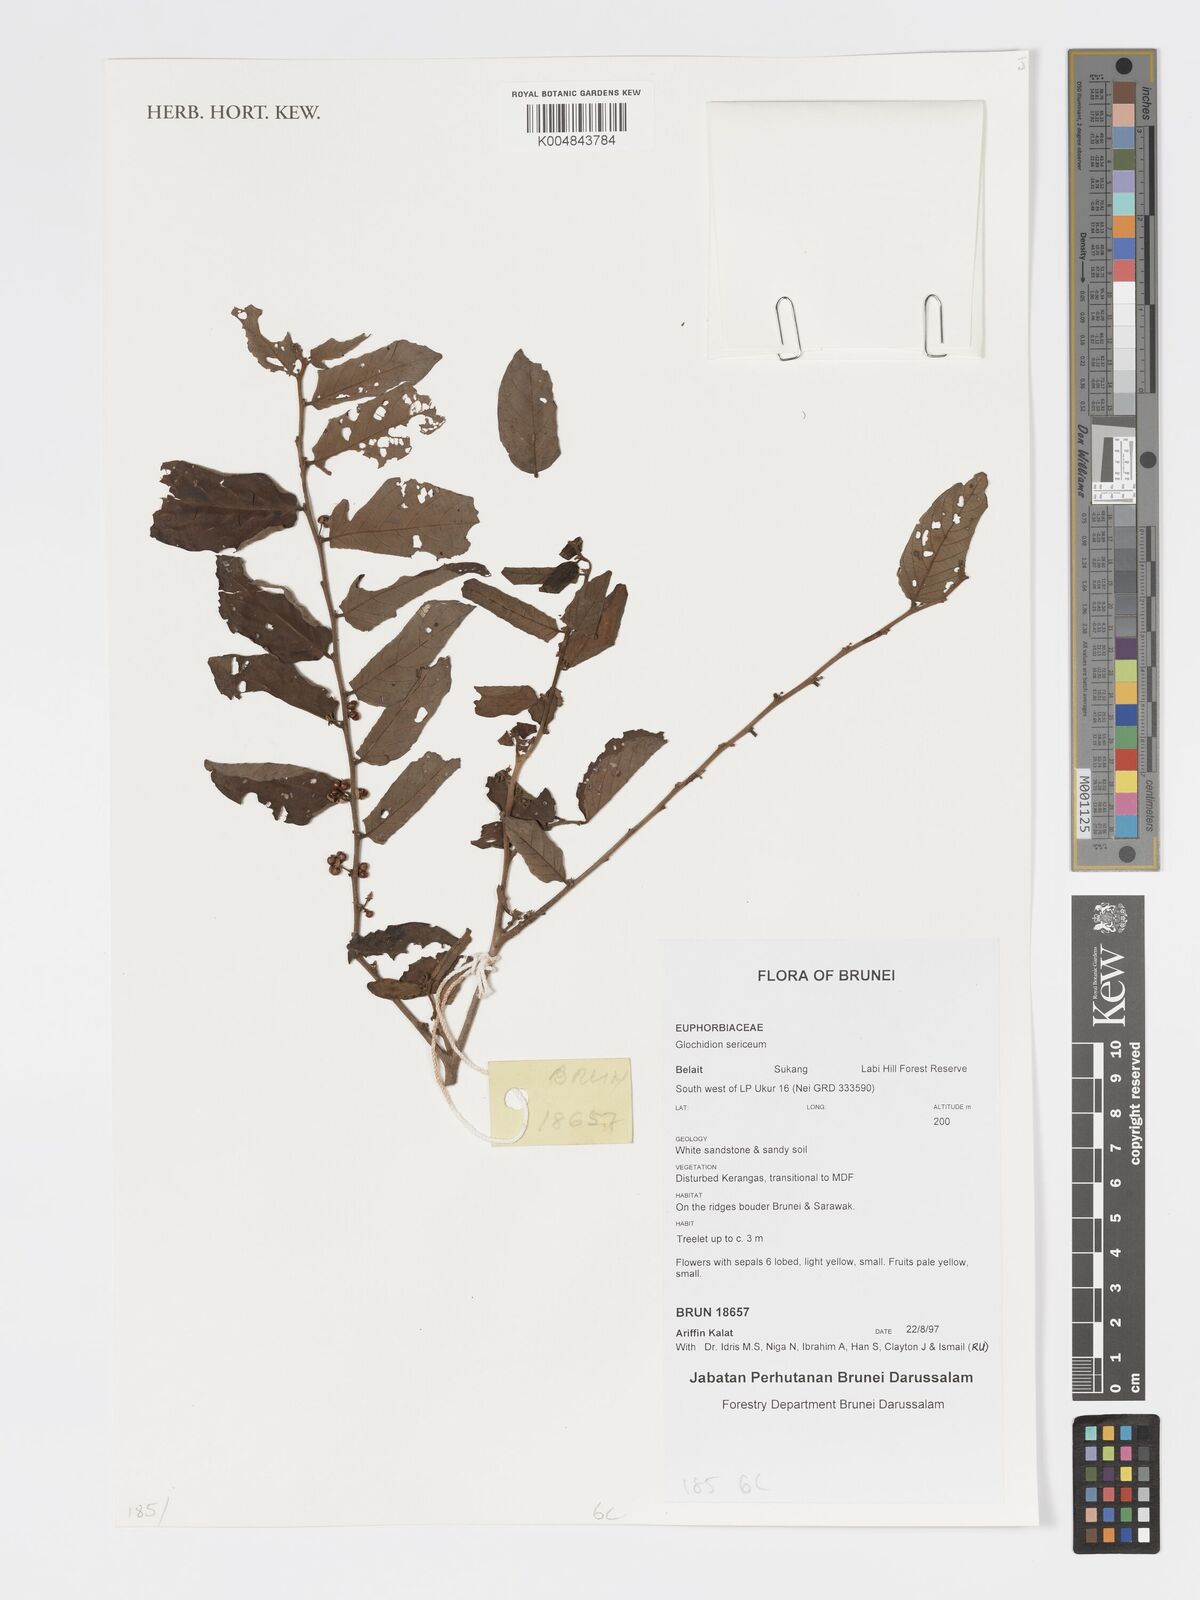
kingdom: Plantae
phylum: Tracheophyta
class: Magnoliopsida
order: Malpighiales
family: Phyllanthaceae
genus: Glochidion
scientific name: Glochidion sericeum
